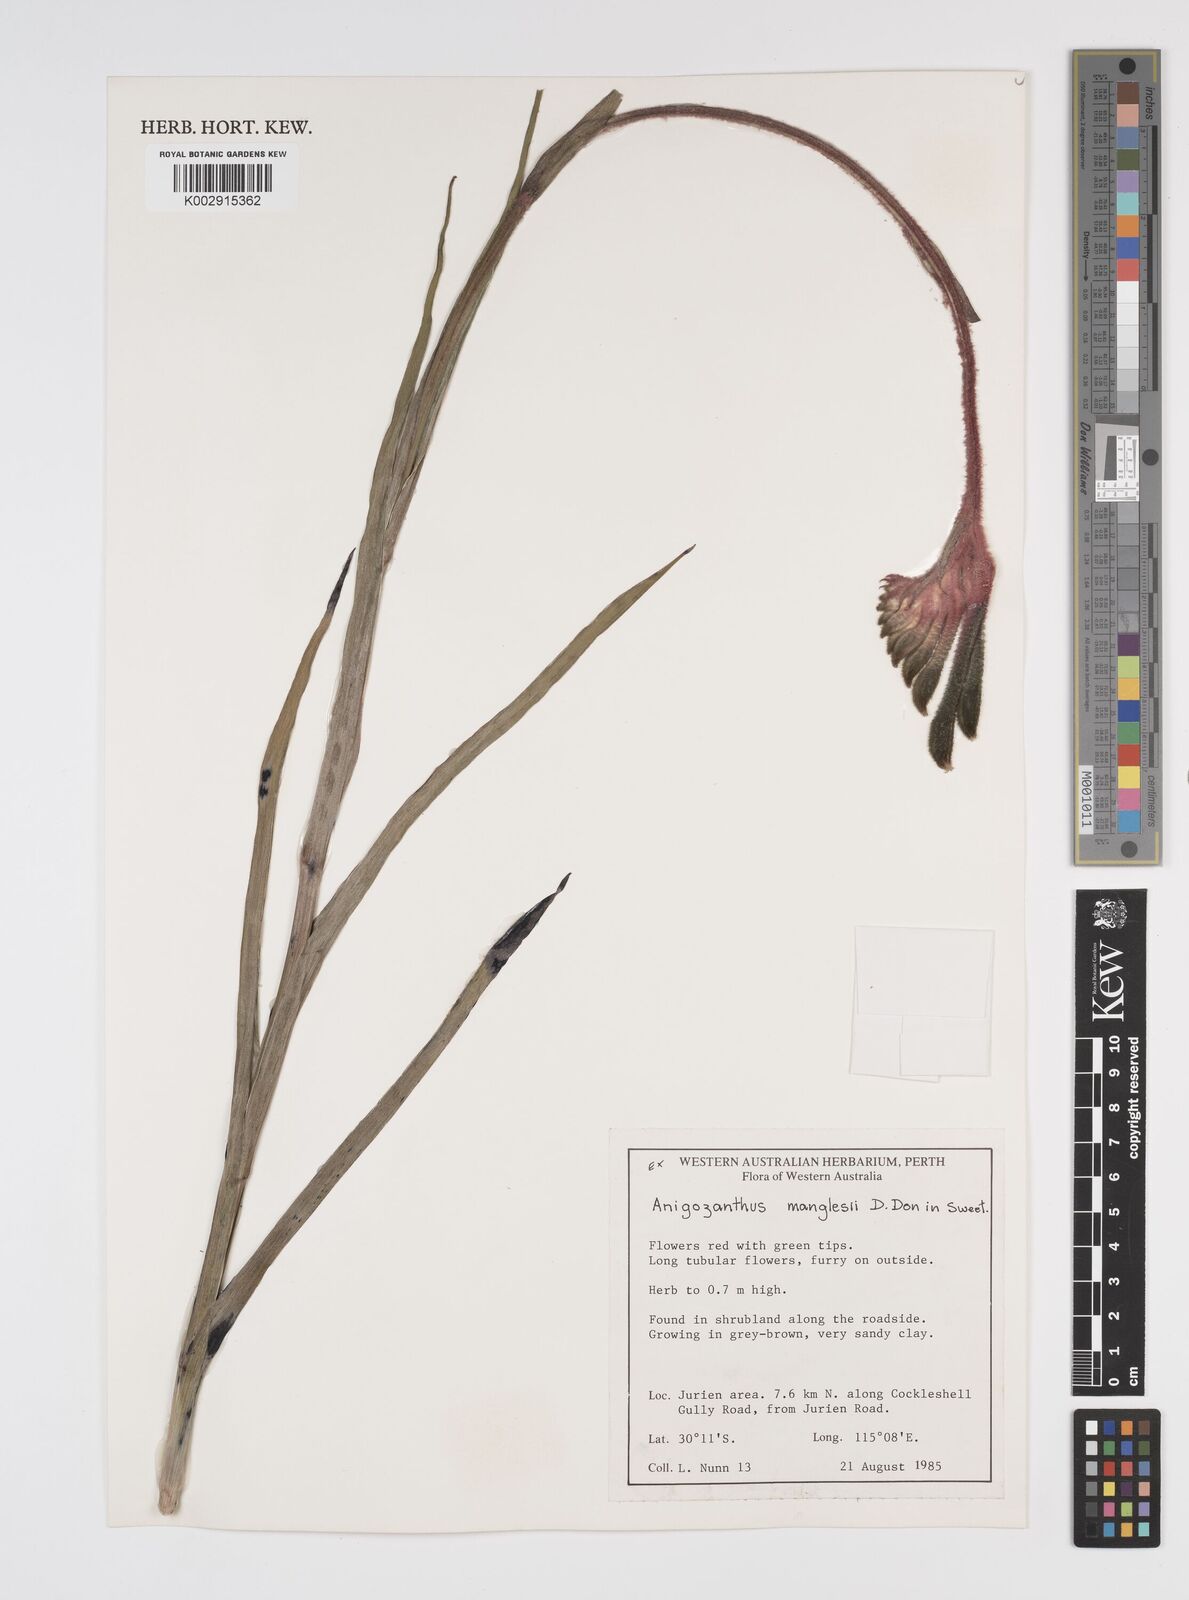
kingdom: Plantae
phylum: Tracheophyta
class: Liliopsida
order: Commelinales
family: Haemodoraceae
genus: Anigozanthos
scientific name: Anigozanthos manglesii
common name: Mangles's kangaroo-paw
